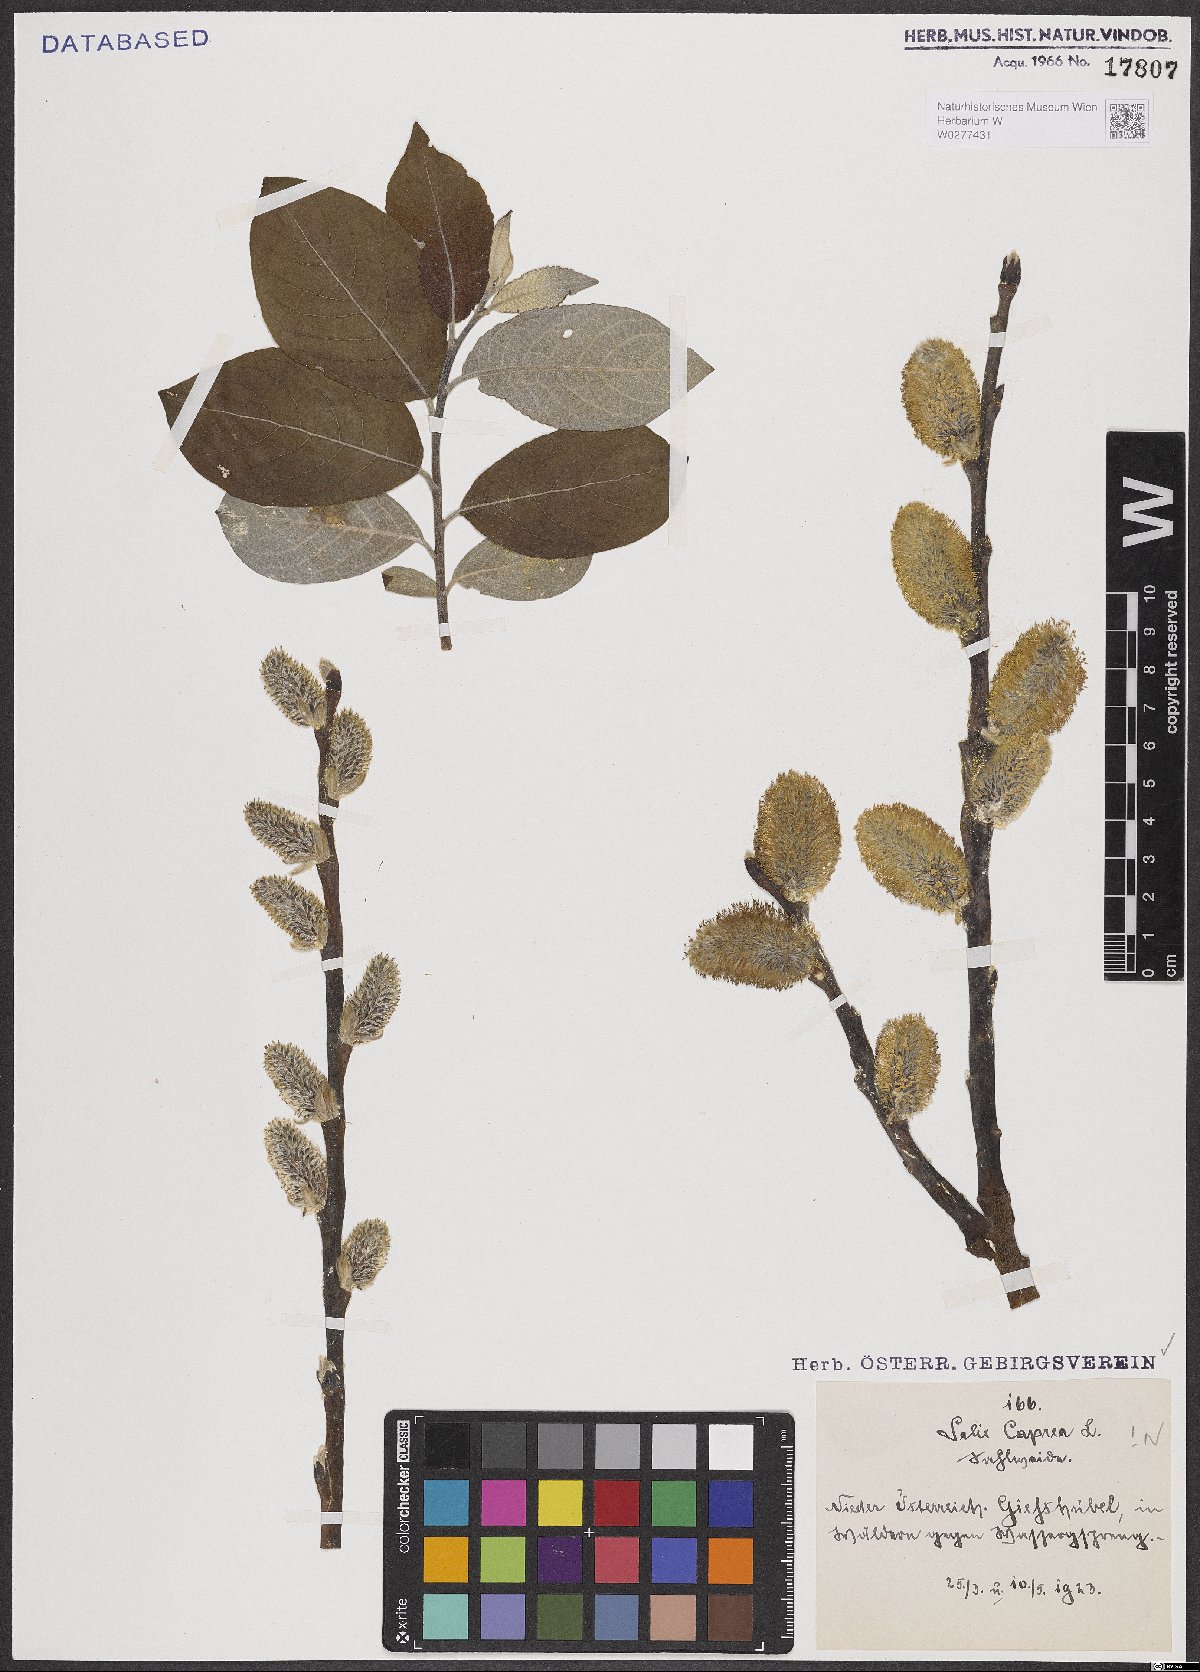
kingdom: Plantae
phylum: Tracheophyta
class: Magnoliopsida
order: Malpighiales
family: Salicaceae
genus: Salix
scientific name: Salix caprea
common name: Goat willow
